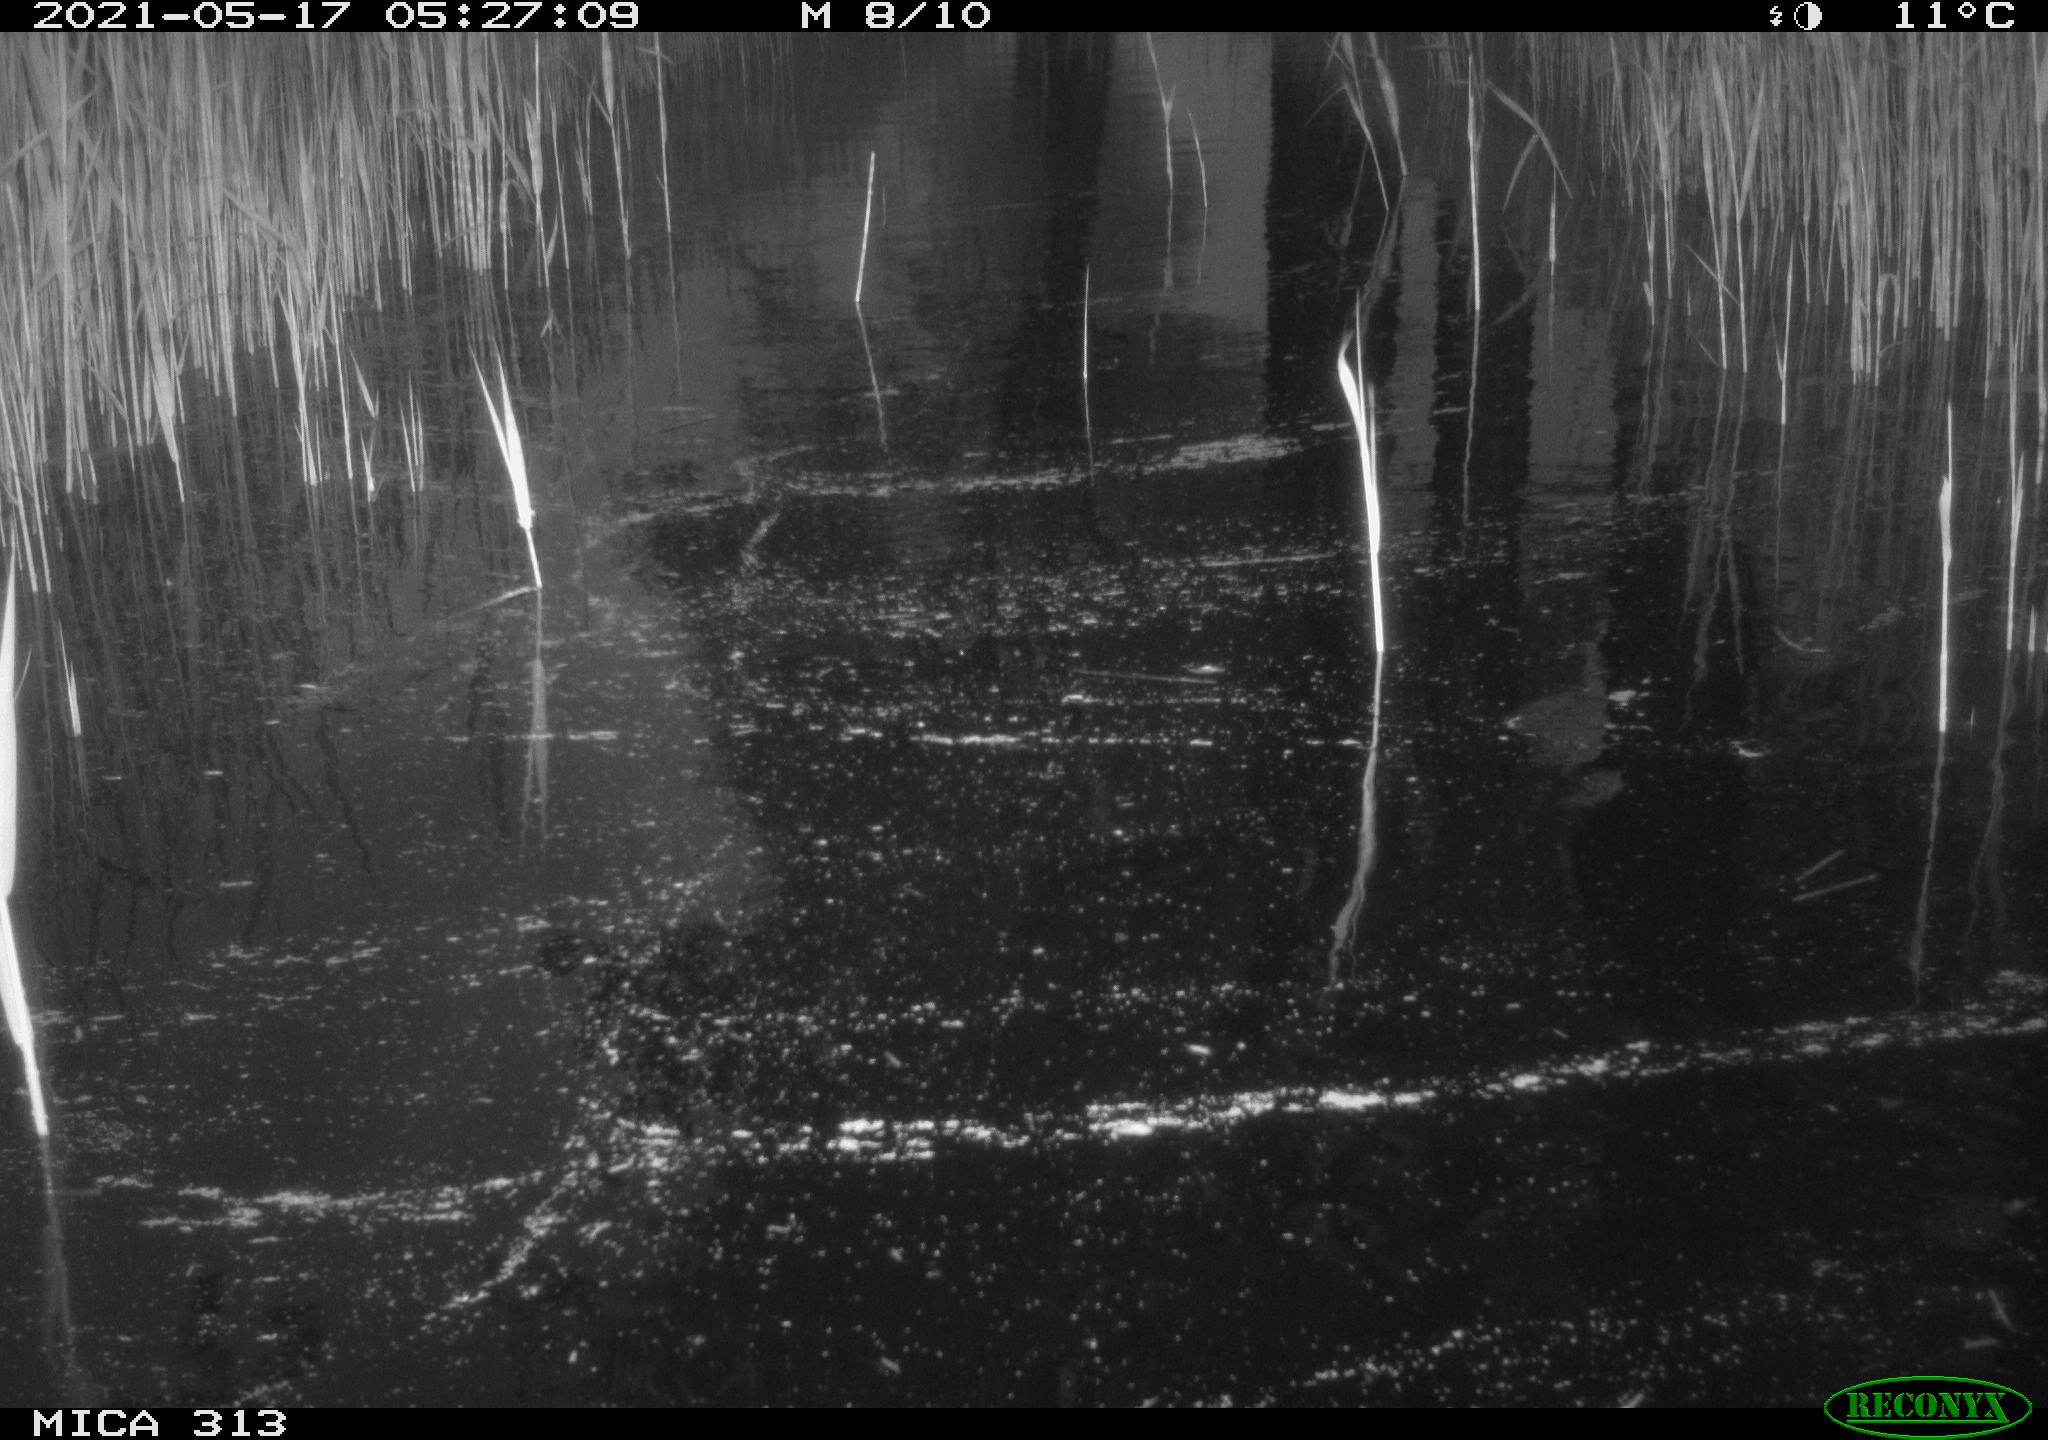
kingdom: Animalia
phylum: Chordata
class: Aves
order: Gruiformes
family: Rallidae
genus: Gallinula
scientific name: Gallinula chloropus
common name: Common moorhen
